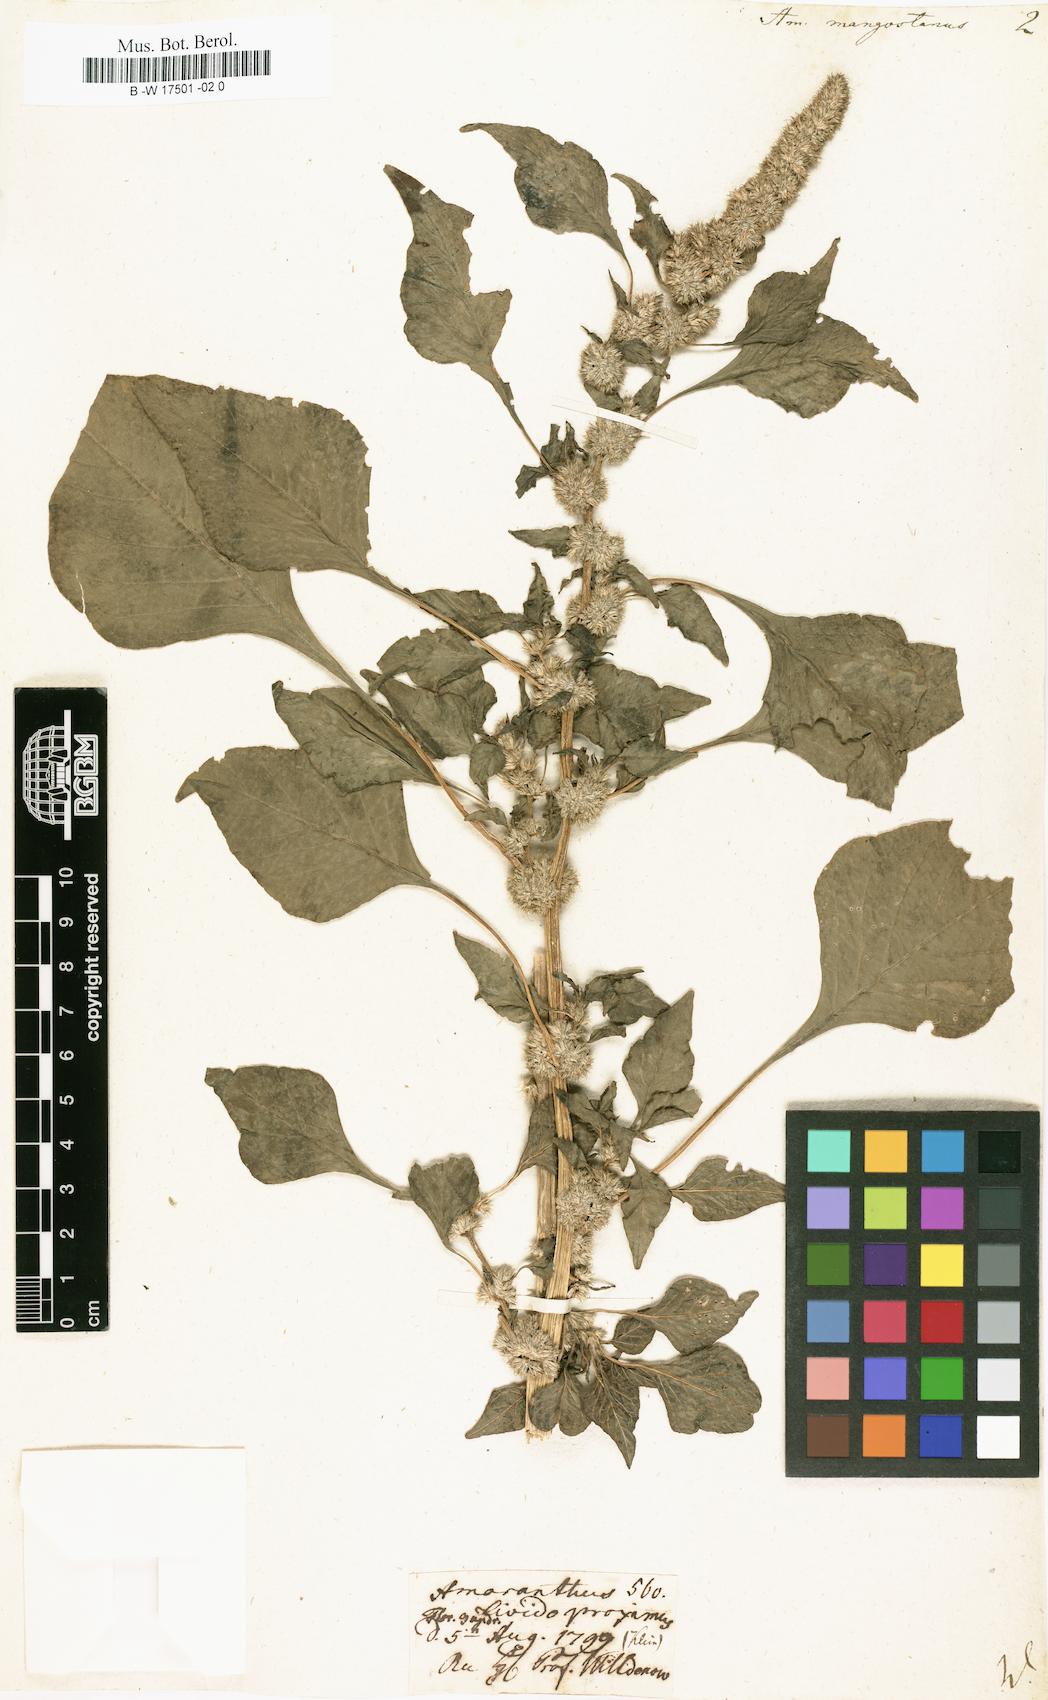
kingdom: Plantae
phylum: Tracheophyta
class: Magnoliopsida
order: Caryophyllales
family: Amaranthaceae
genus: Amaranthus
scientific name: Amaranthus tricolor
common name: Joseph's-coat
